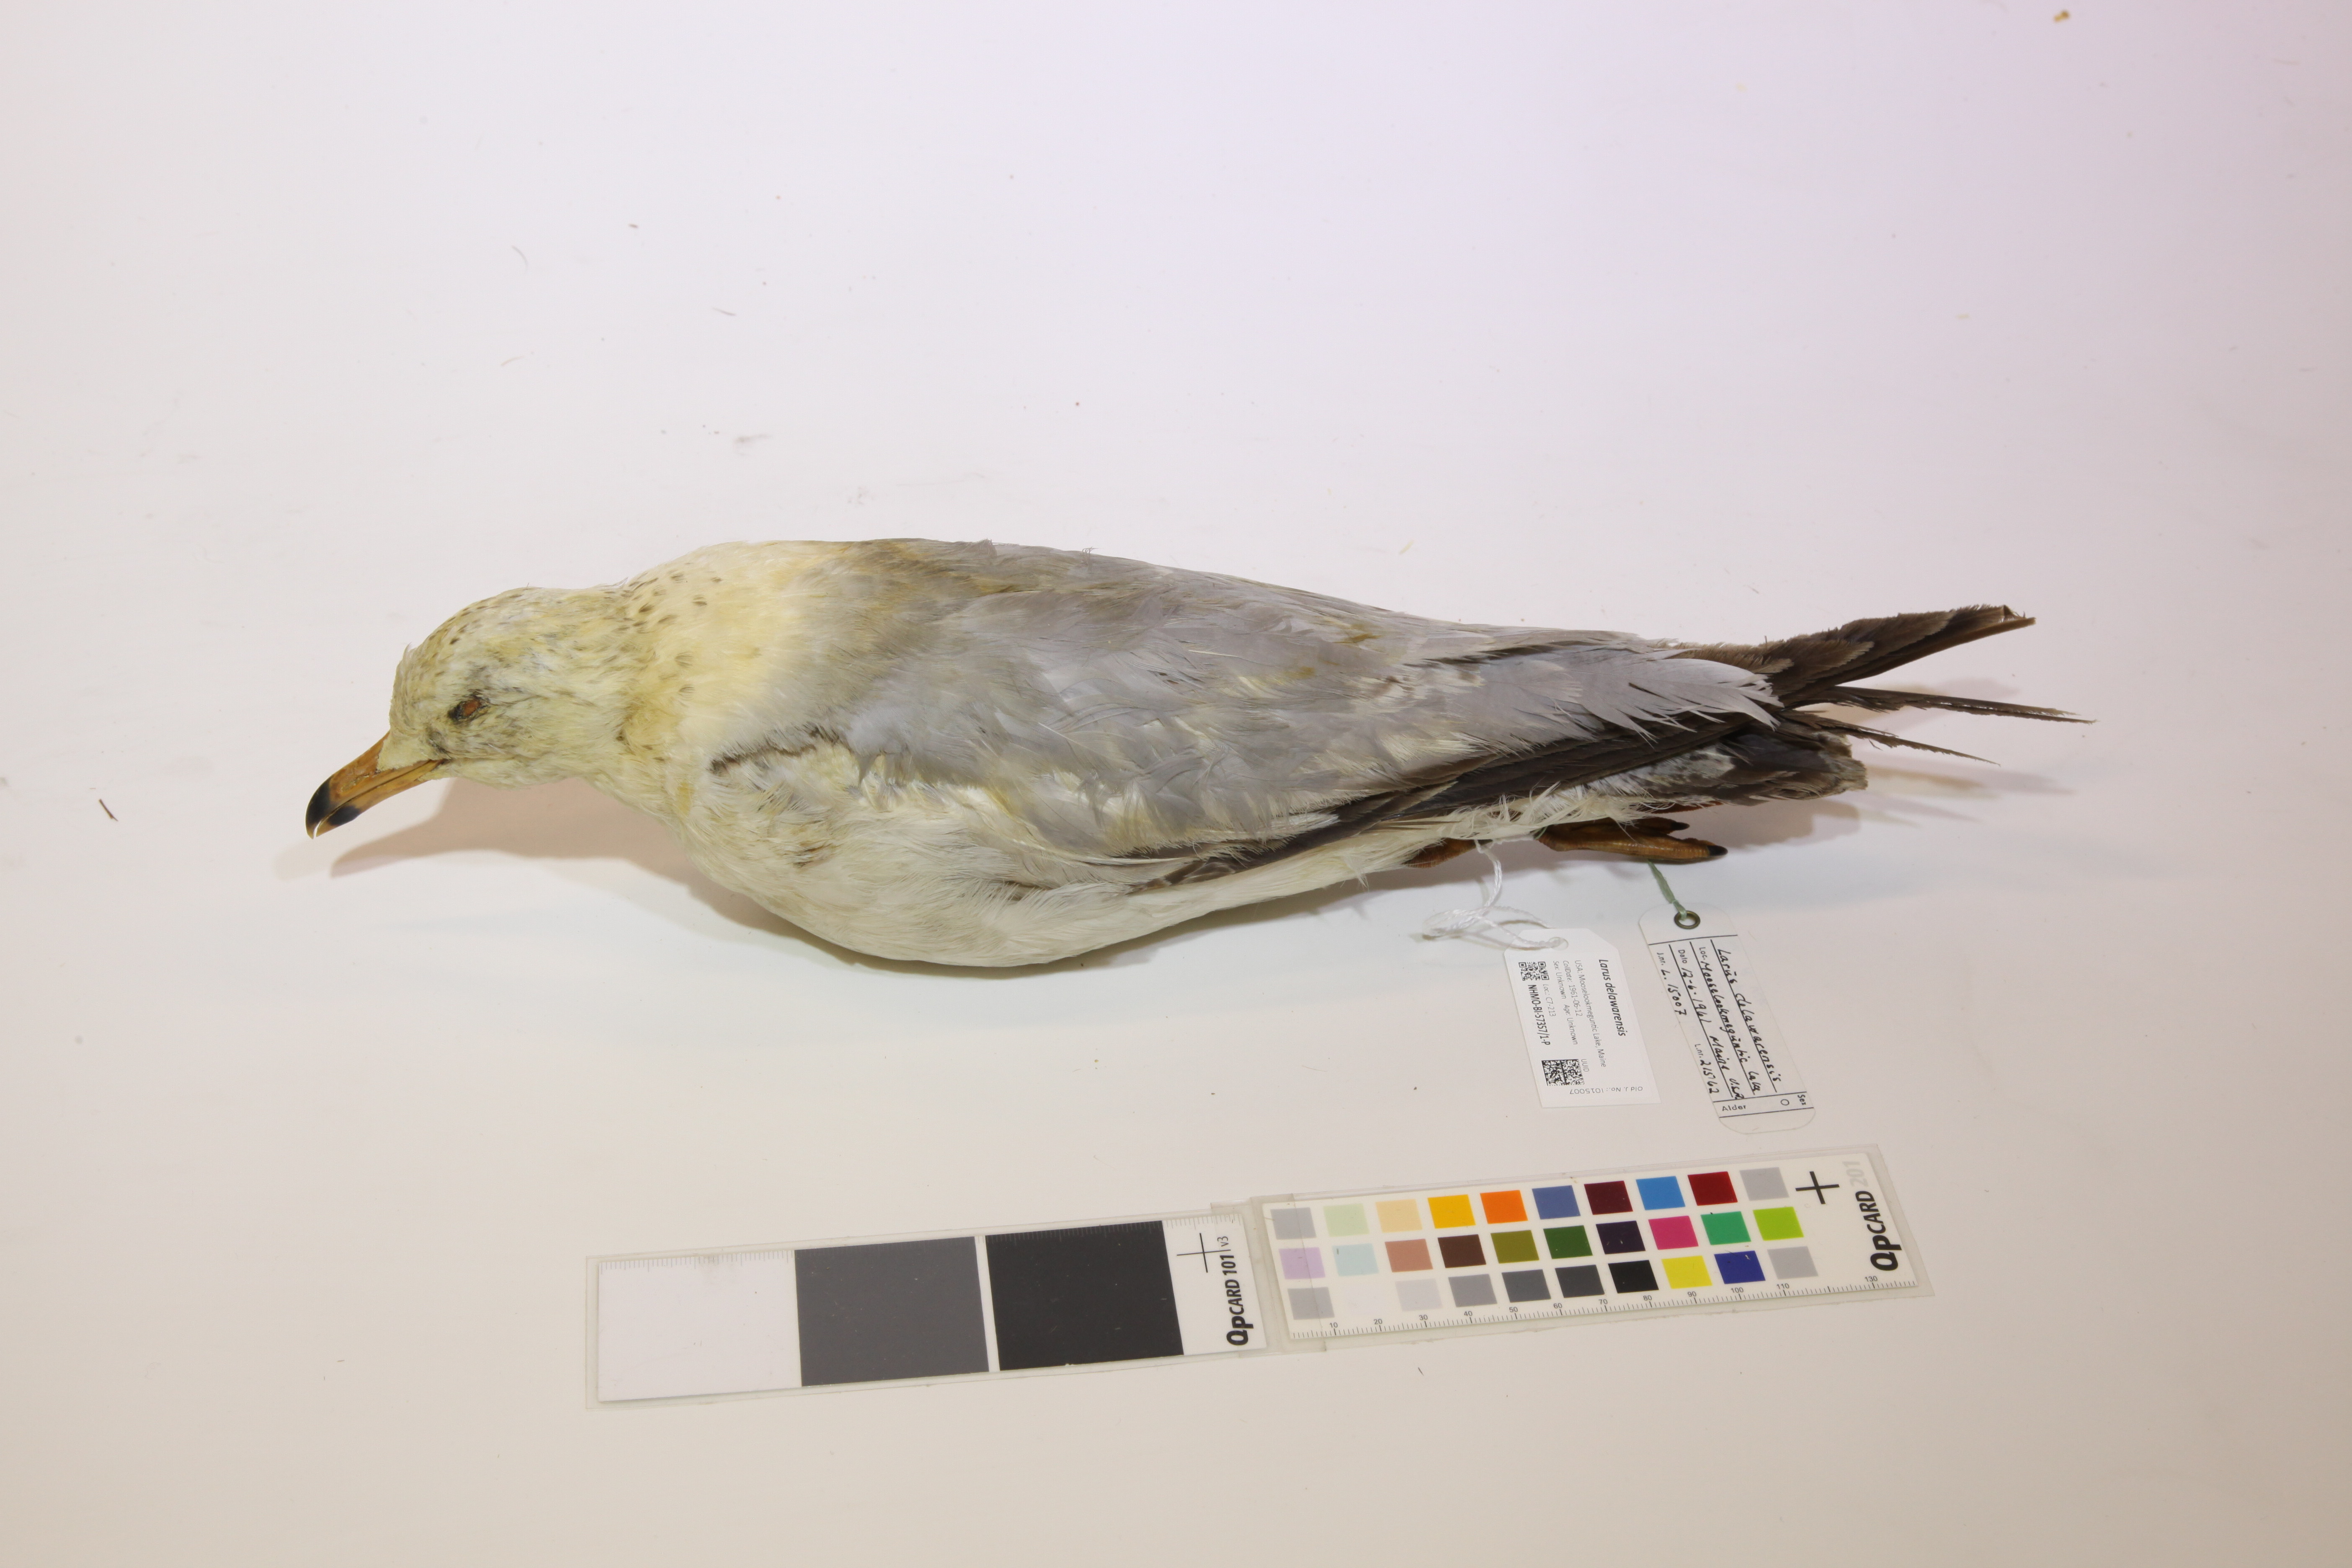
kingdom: Animalia
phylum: Chordata
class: Aves
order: Charadriiformes
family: Laridae
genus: Larus
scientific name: Larus delawarensis
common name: Ring-billed gull
